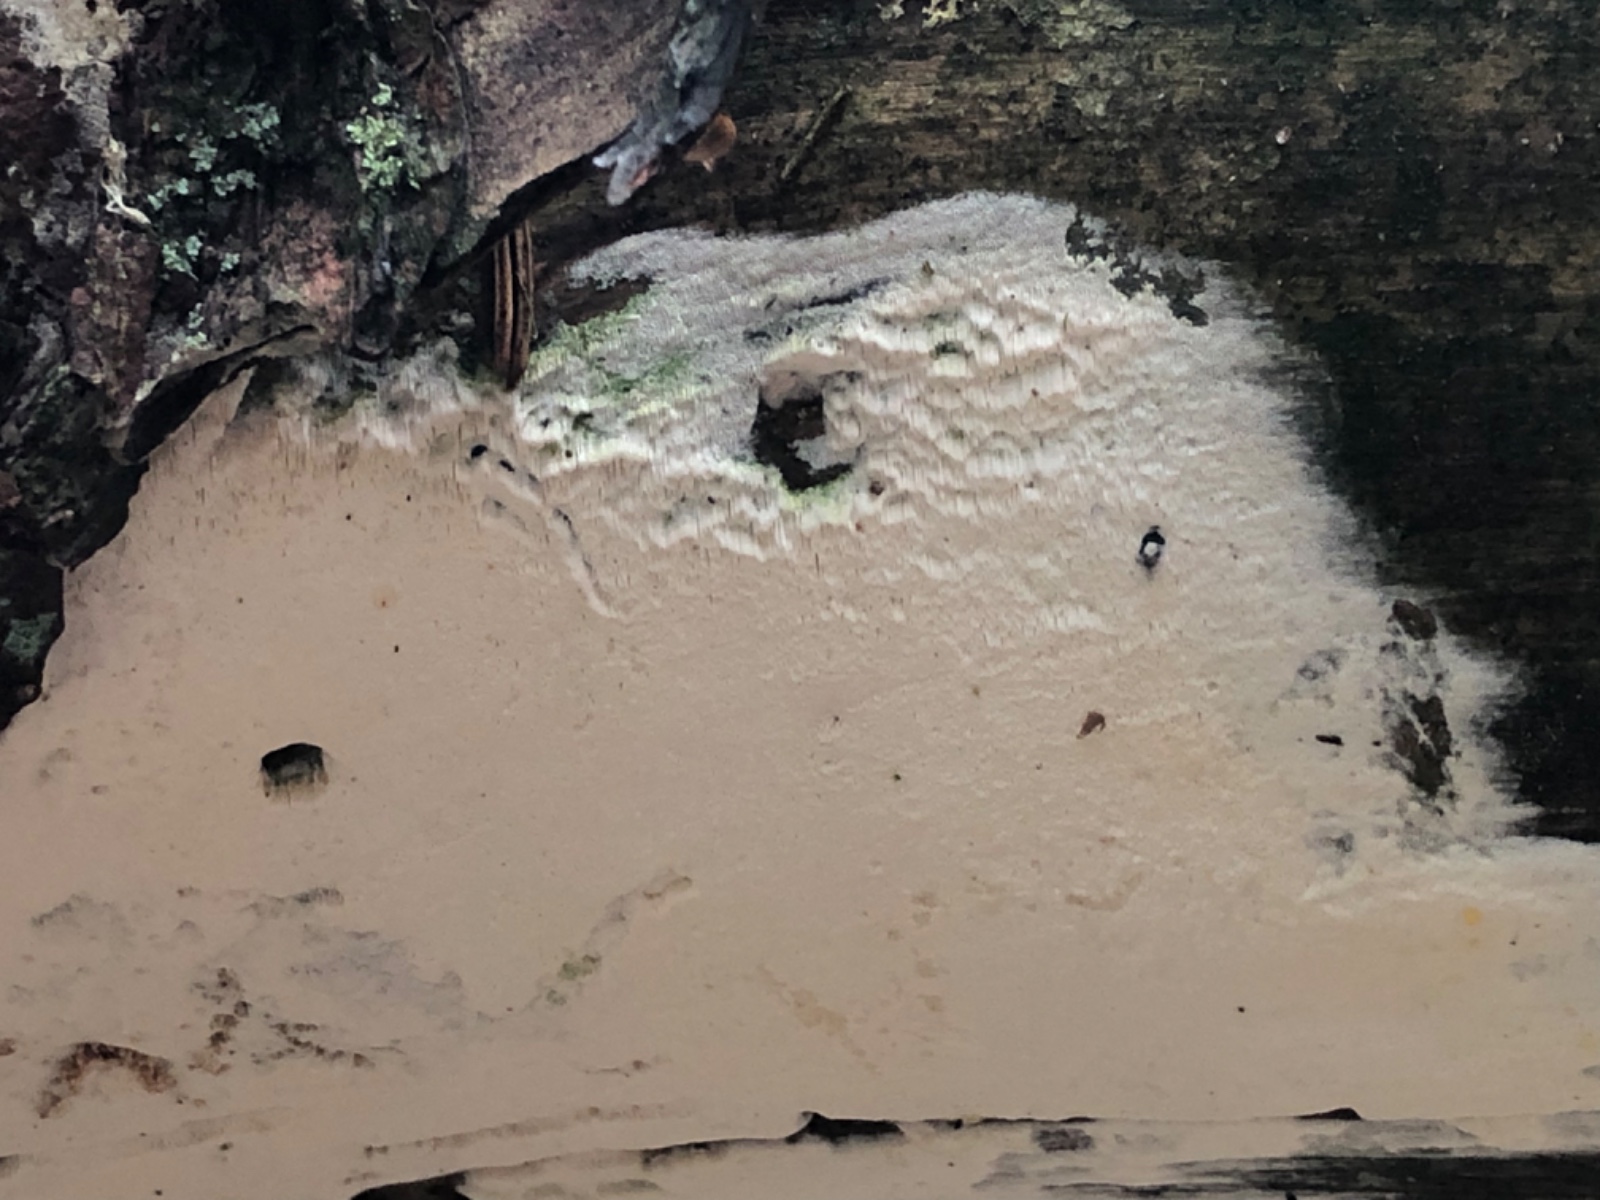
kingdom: Fungi
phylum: Basidiomycota
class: Agaricomycetes
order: Hymenochaetales
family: Rickenellaceae
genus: Sidera
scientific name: Sidera vulgaris
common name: fin flødeporesvamp
